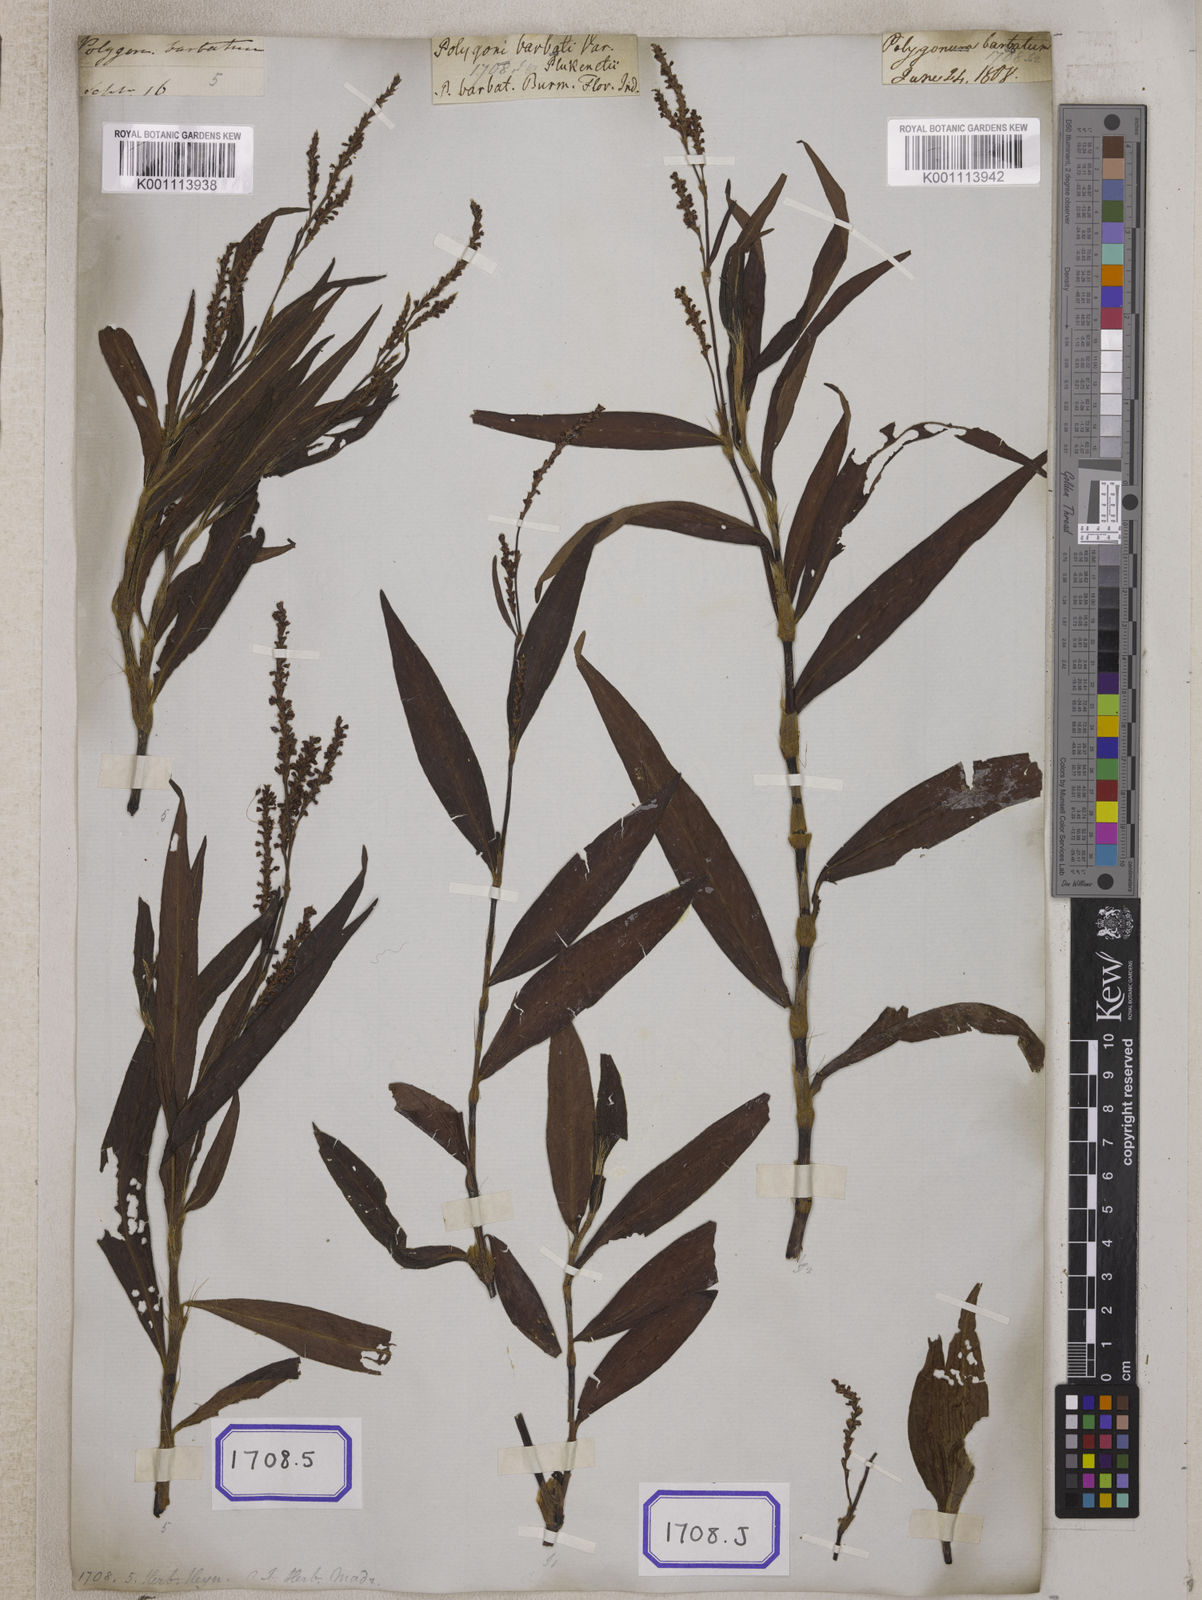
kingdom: Plantae
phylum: Tracheophyta
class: Magnoliopsida
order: Caryophyllales
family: Polygonaceae
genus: Persicaria
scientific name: Persicaria barbata
